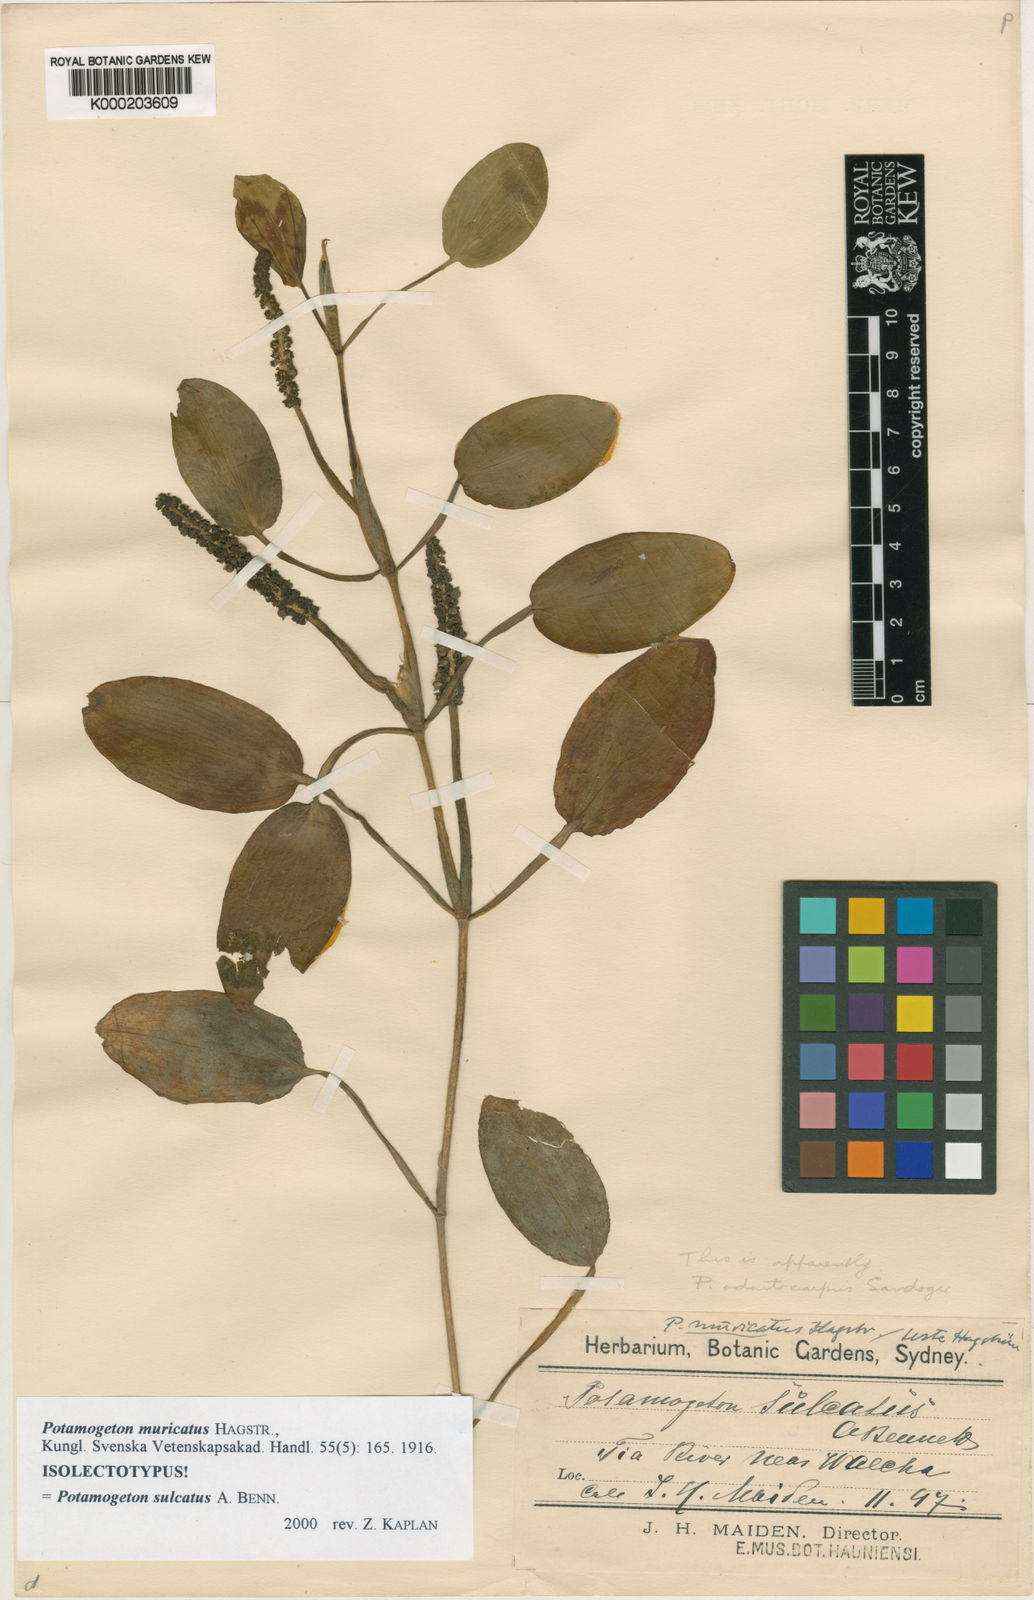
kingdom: Plantae
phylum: Tracheophyta
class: Liliopsida
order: Alismatales
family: Potamogetonaceae
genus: Potamogeton
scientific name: Potamogeton sulcatus
